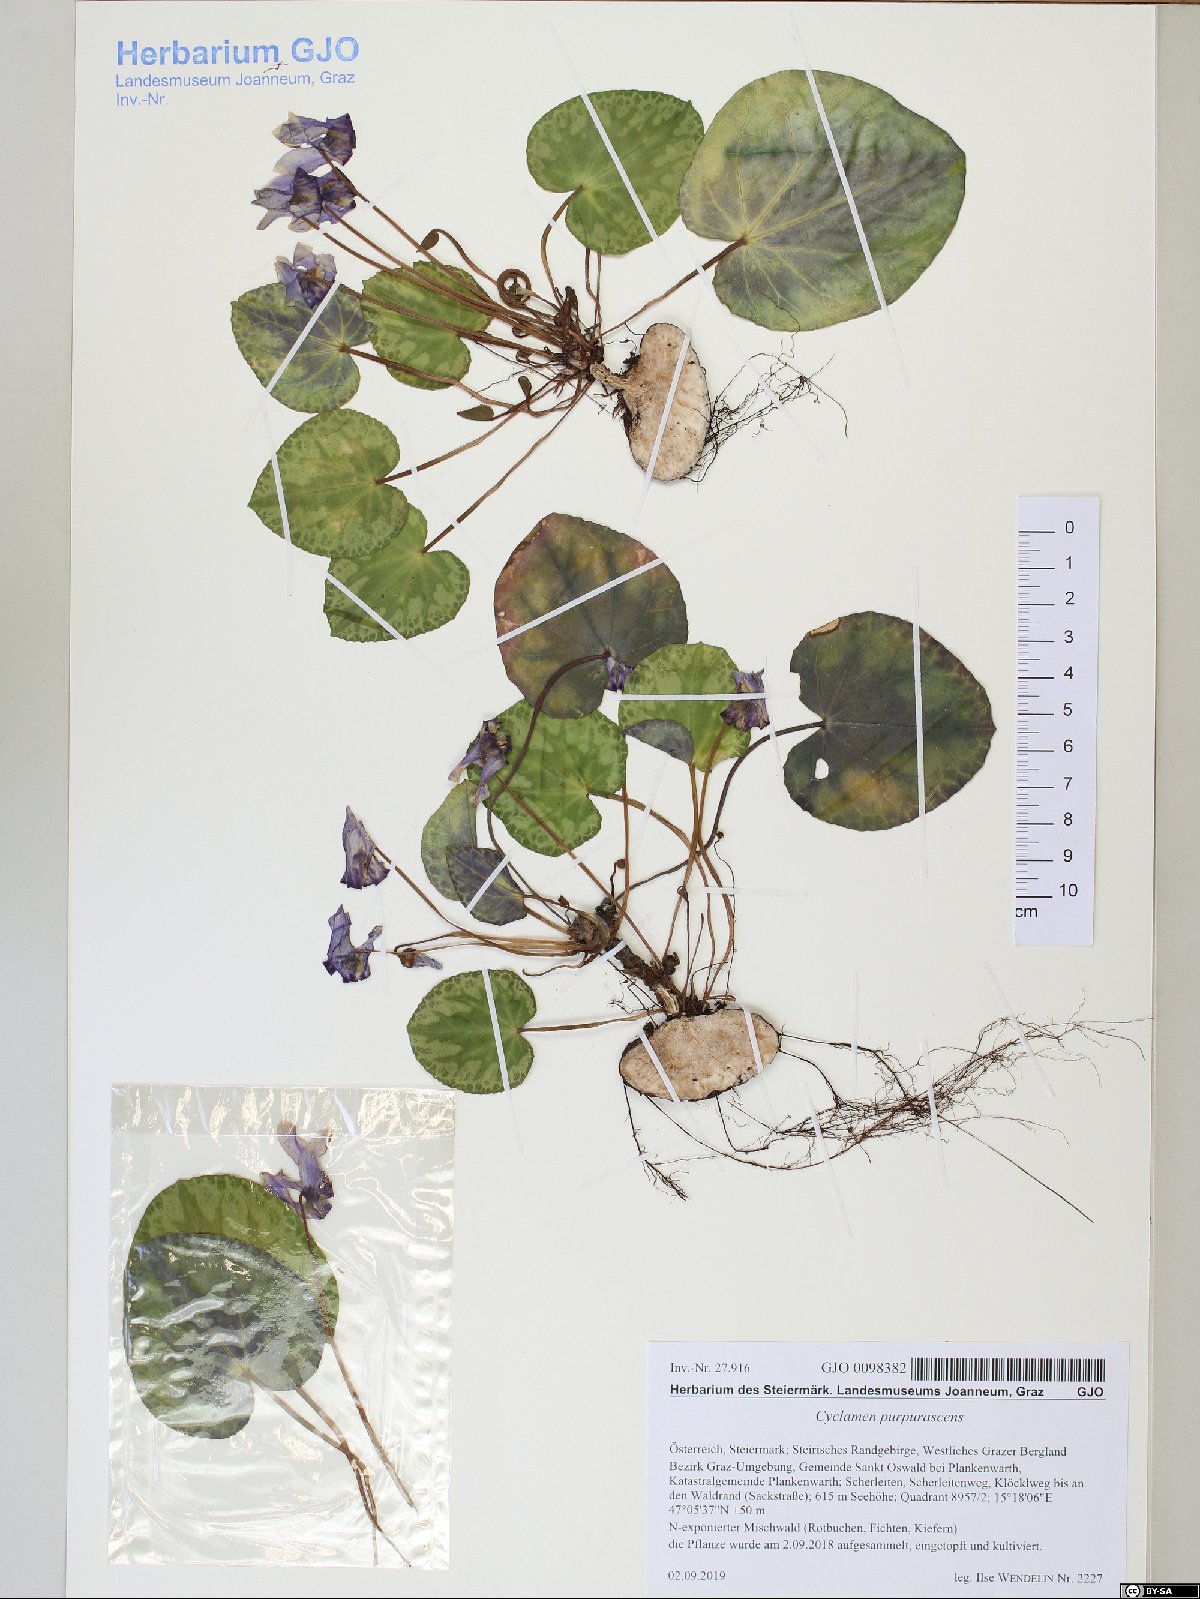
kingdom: Plantae
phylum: Tracheophyta
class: Magnoliopsida
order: Ericales
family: Primulaceae
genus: Cyclamen
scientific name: Cyclamen purpurascens
